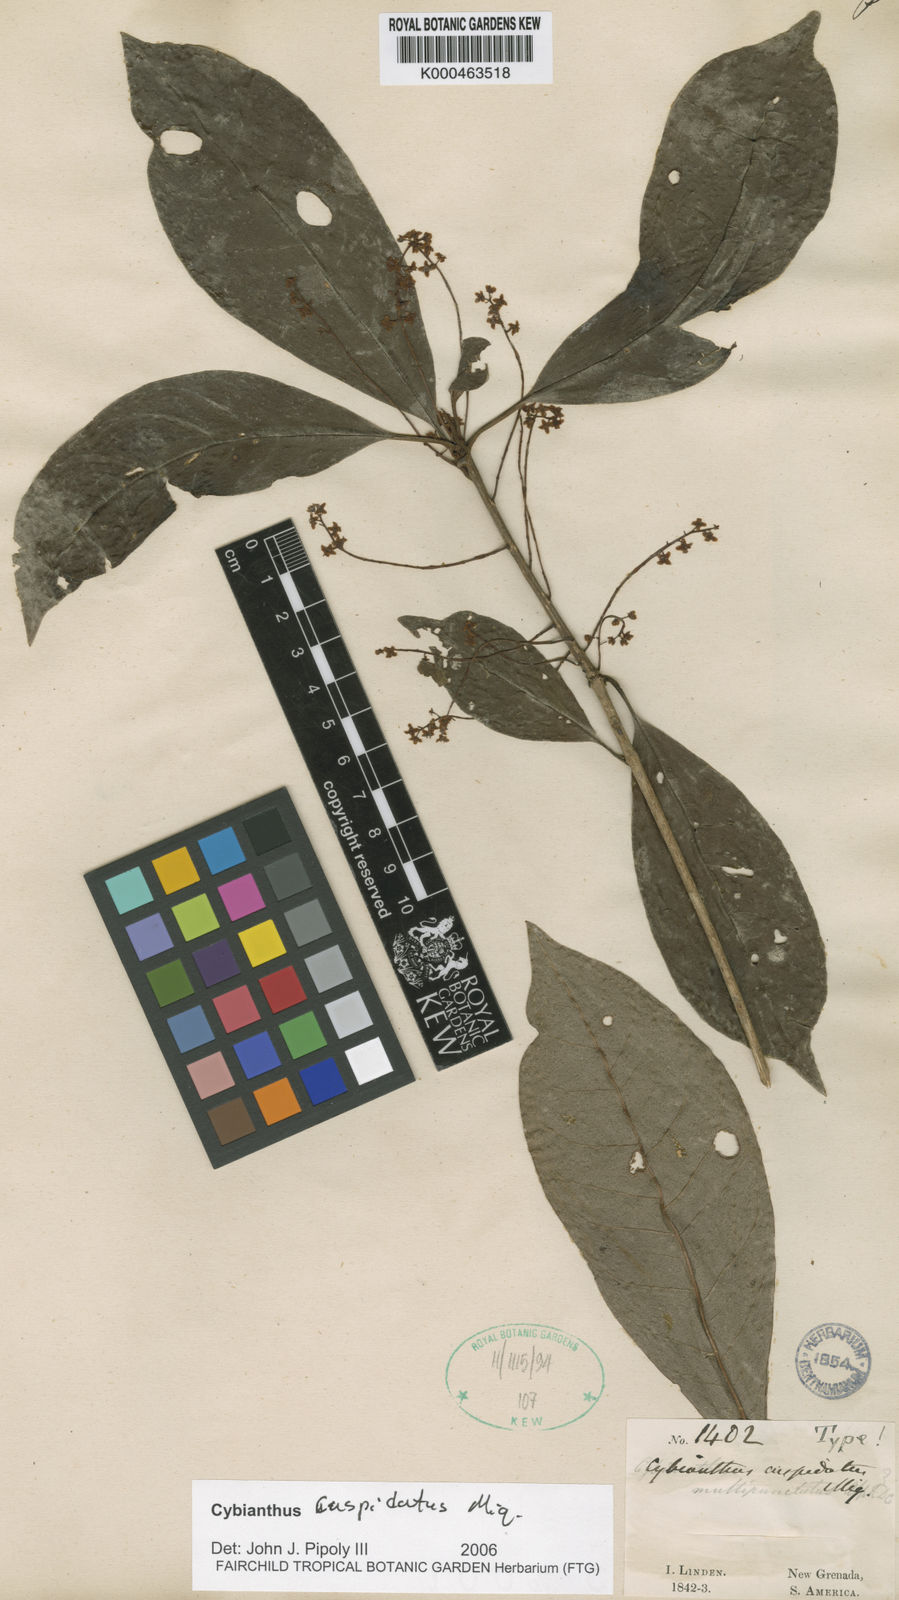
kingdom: Plantae
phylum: Tracheophyta
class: Magnoliopsida
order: Ericales
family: Primulaceae
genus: Cybianthus
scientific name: Cybianthus cuspidatus
